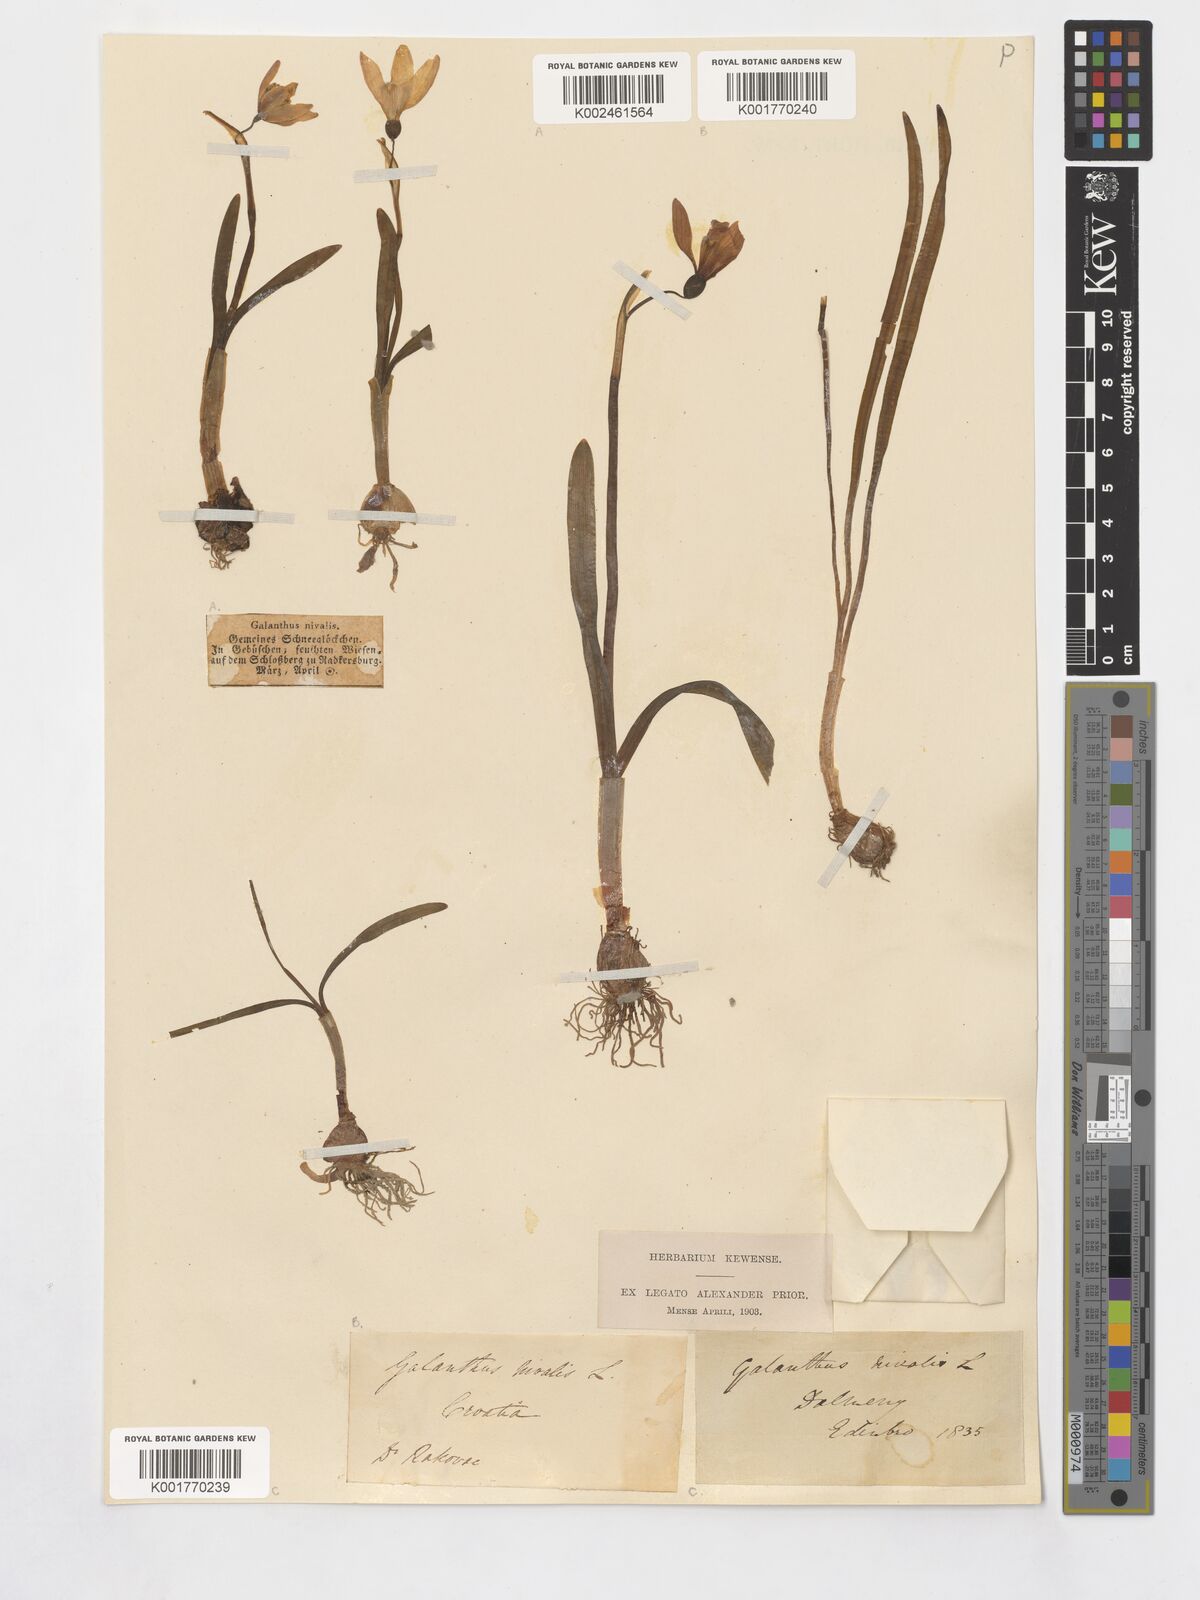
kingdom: Plantae
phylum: Tracheophyta
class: Liliopsida
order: Asparagales
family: Amaryllidaceae
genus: Galanthus
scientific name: Galanthus nivalis
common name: Snowdrop
